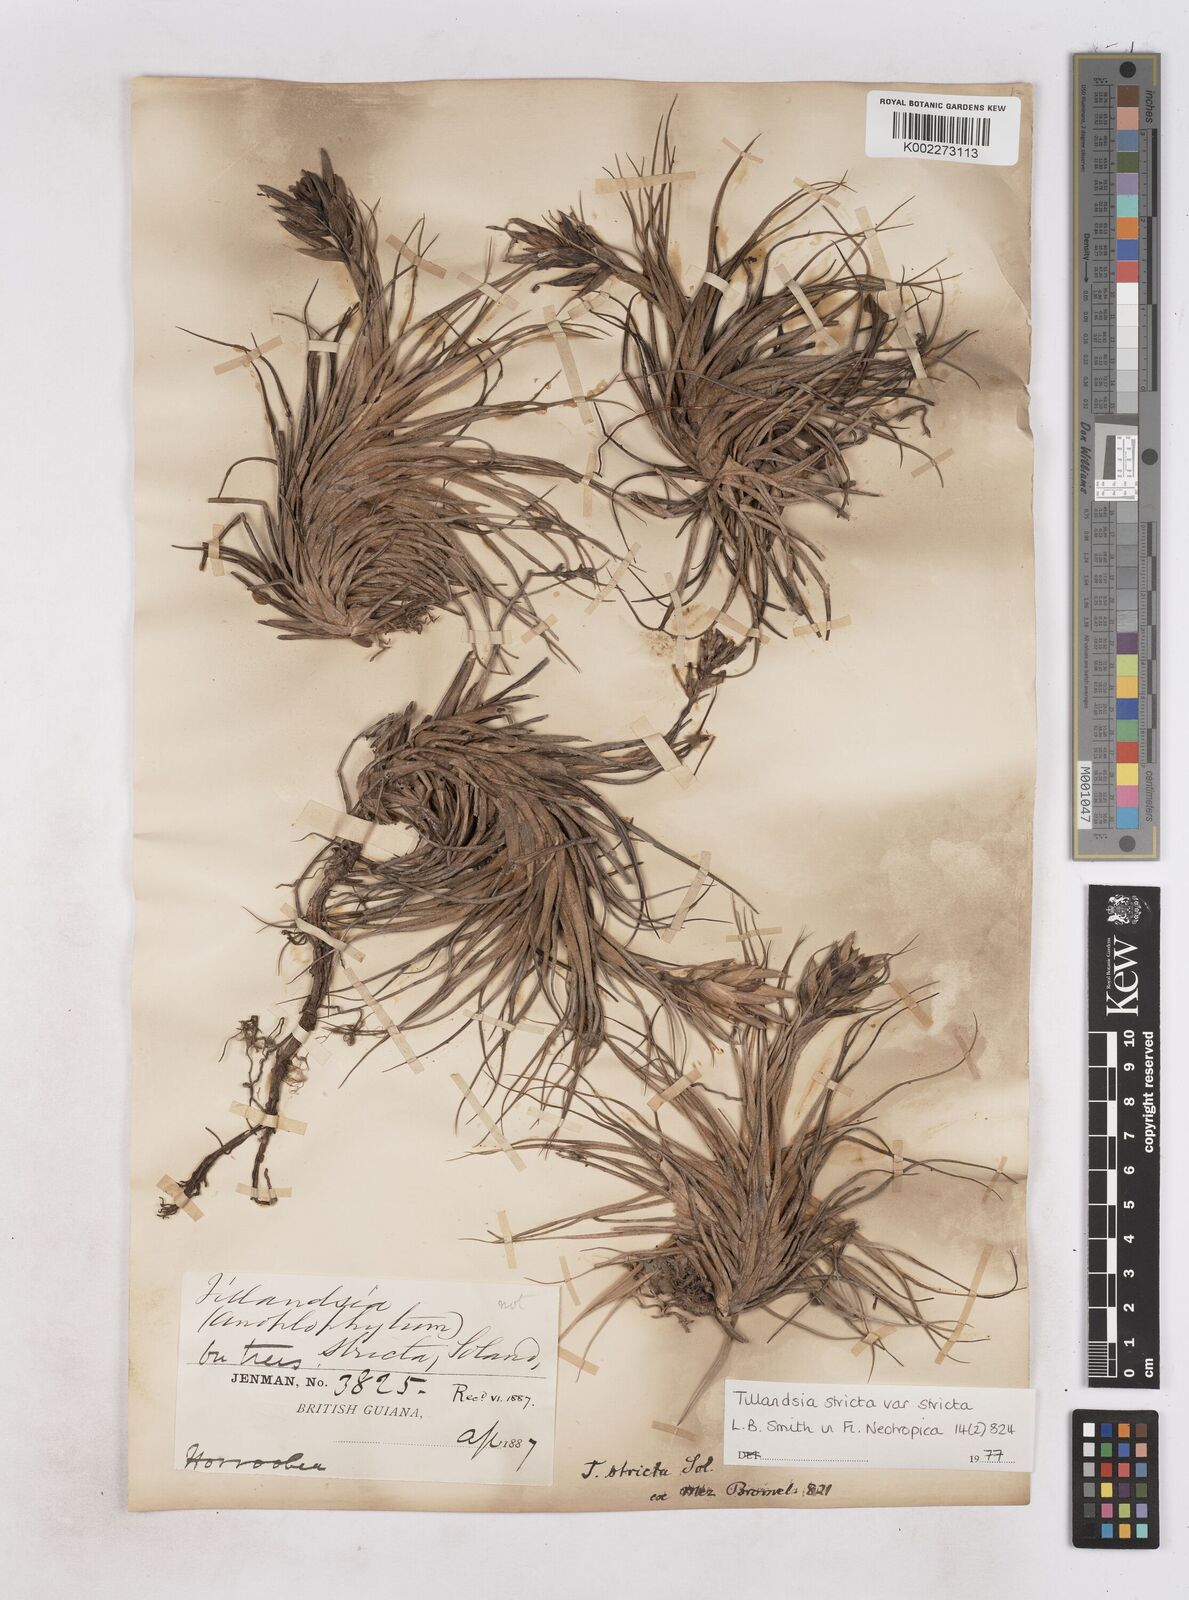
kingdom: Plantae
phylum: Tracheophyta
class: Liliopsida
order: Poales
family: Bromeliaceae
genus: Tillandsia
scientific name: Tillandsia stricta
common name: Airplant
